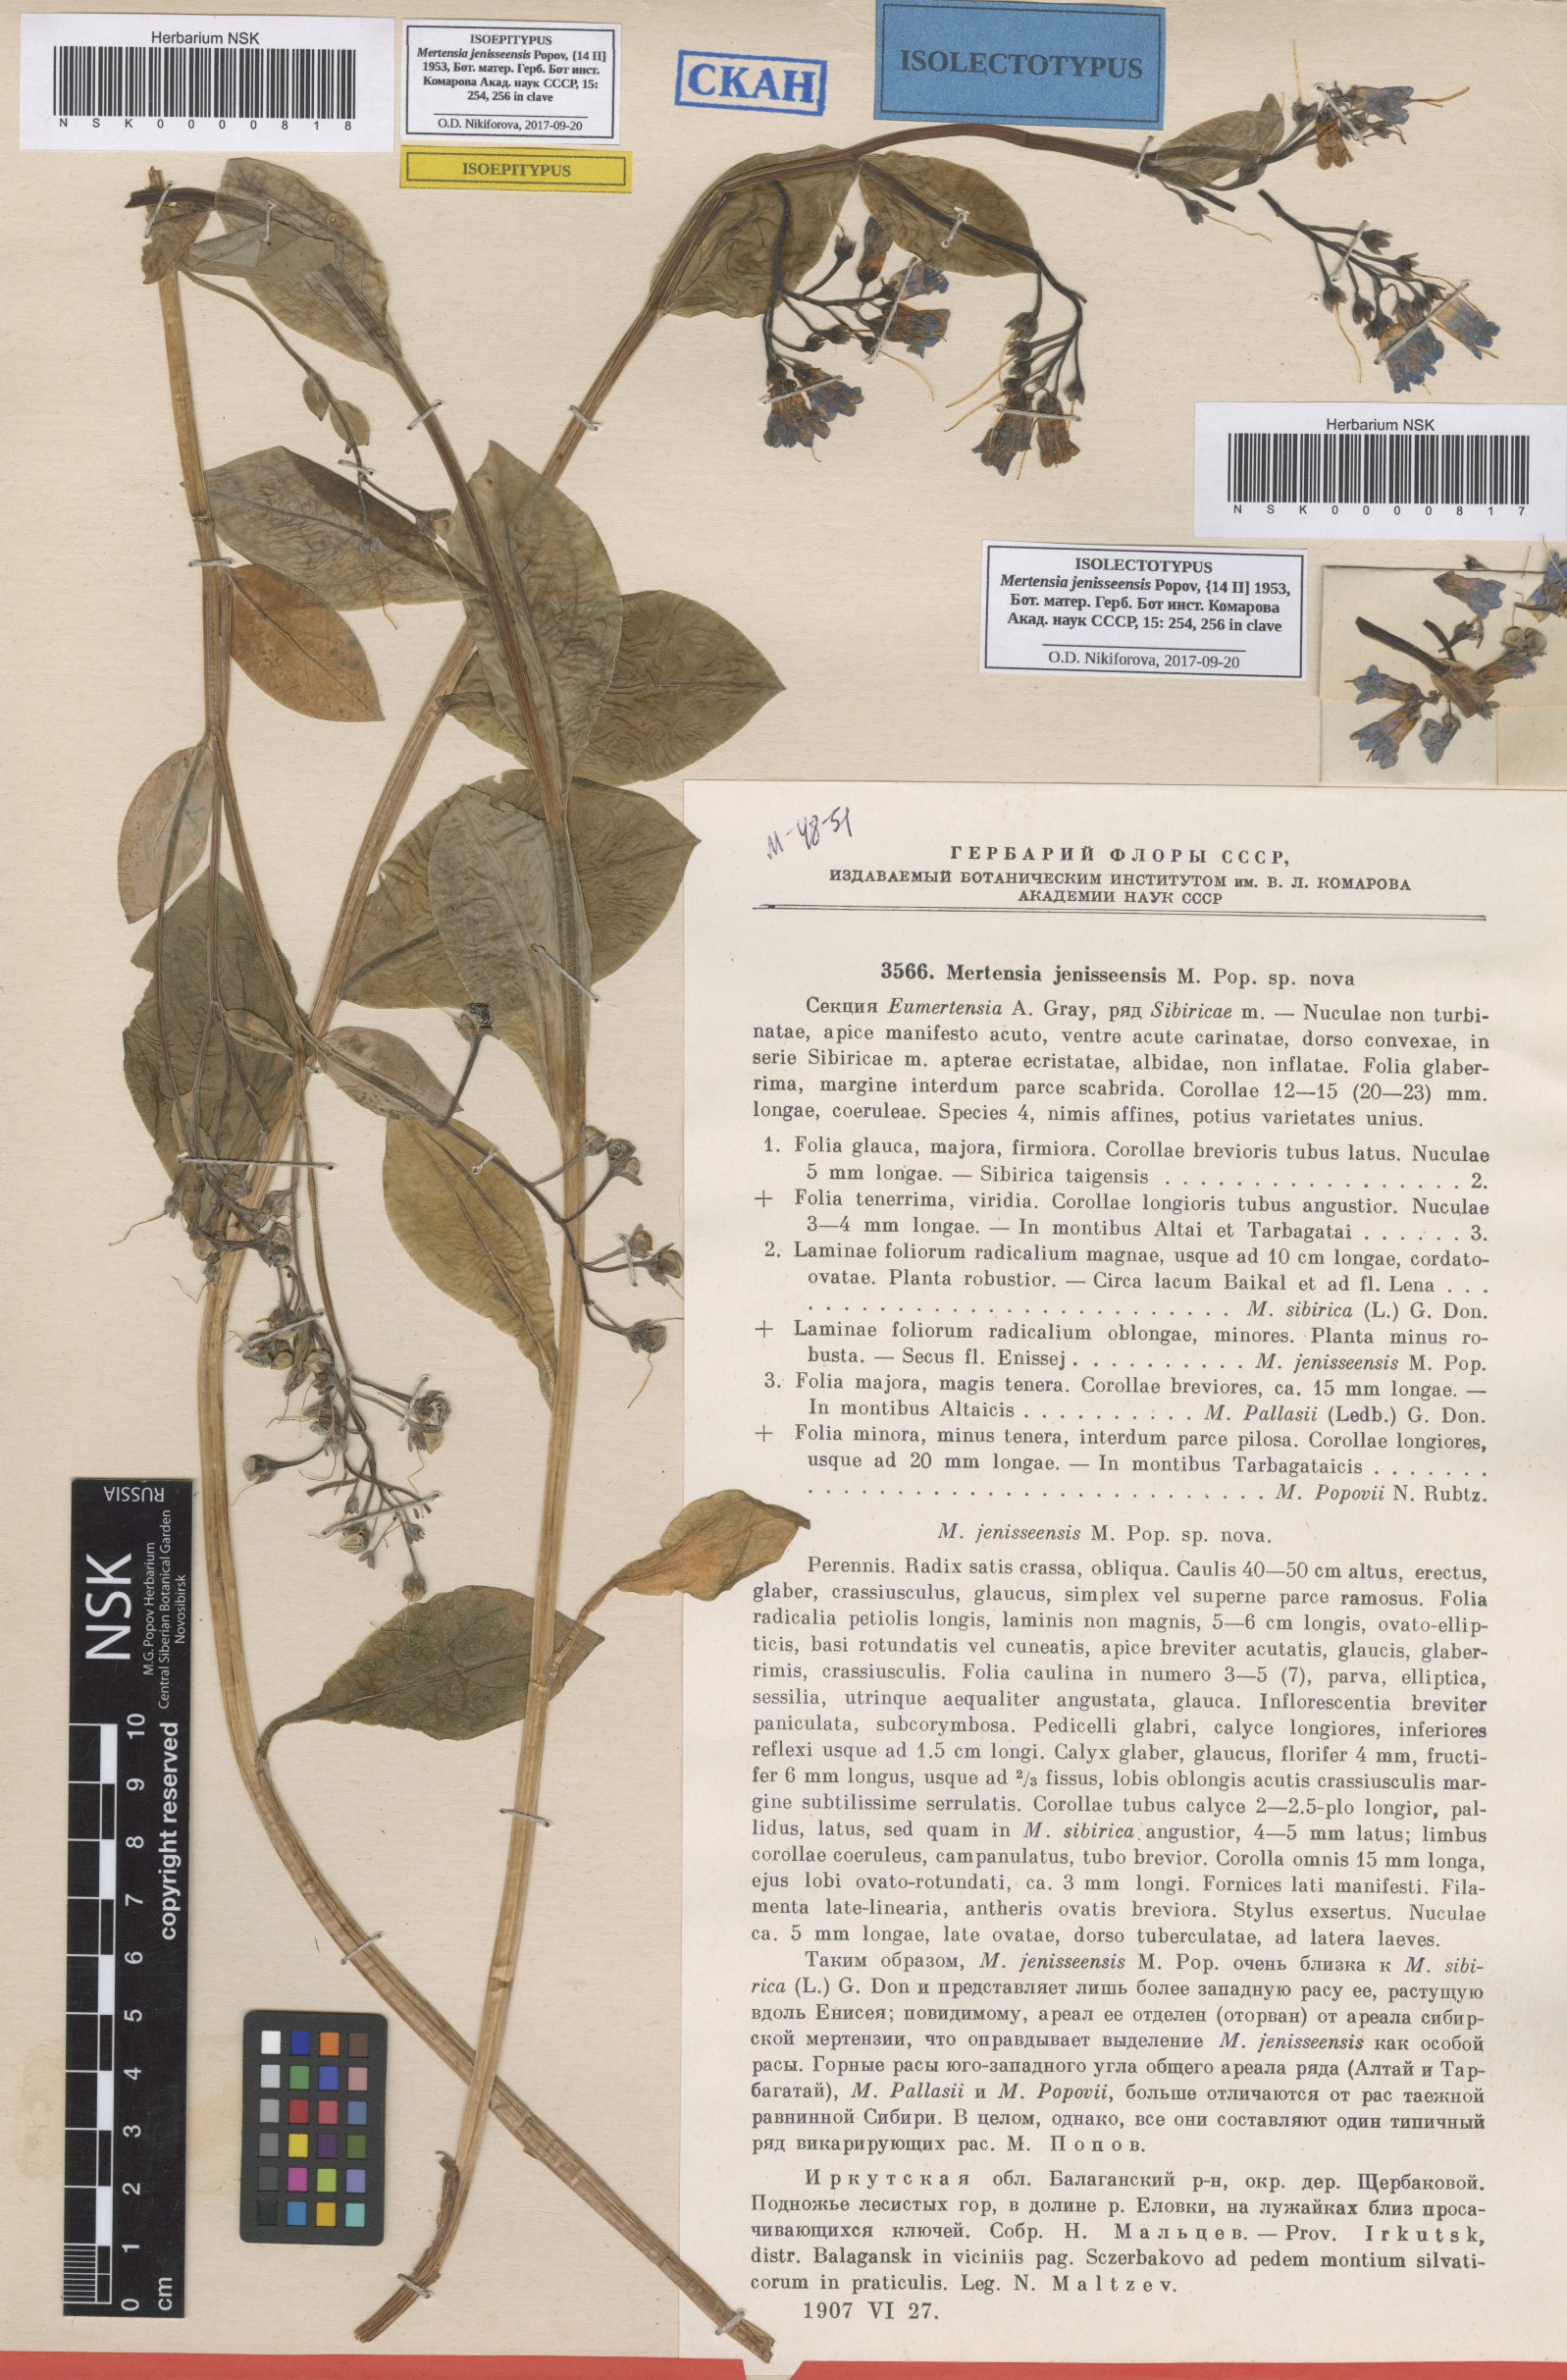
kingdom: Plantae
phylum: Tracheophyta
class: Magnoliopsida
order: Boraginales
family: Boraginaceae
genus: Mertensia
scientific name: Mertensia sibirica
